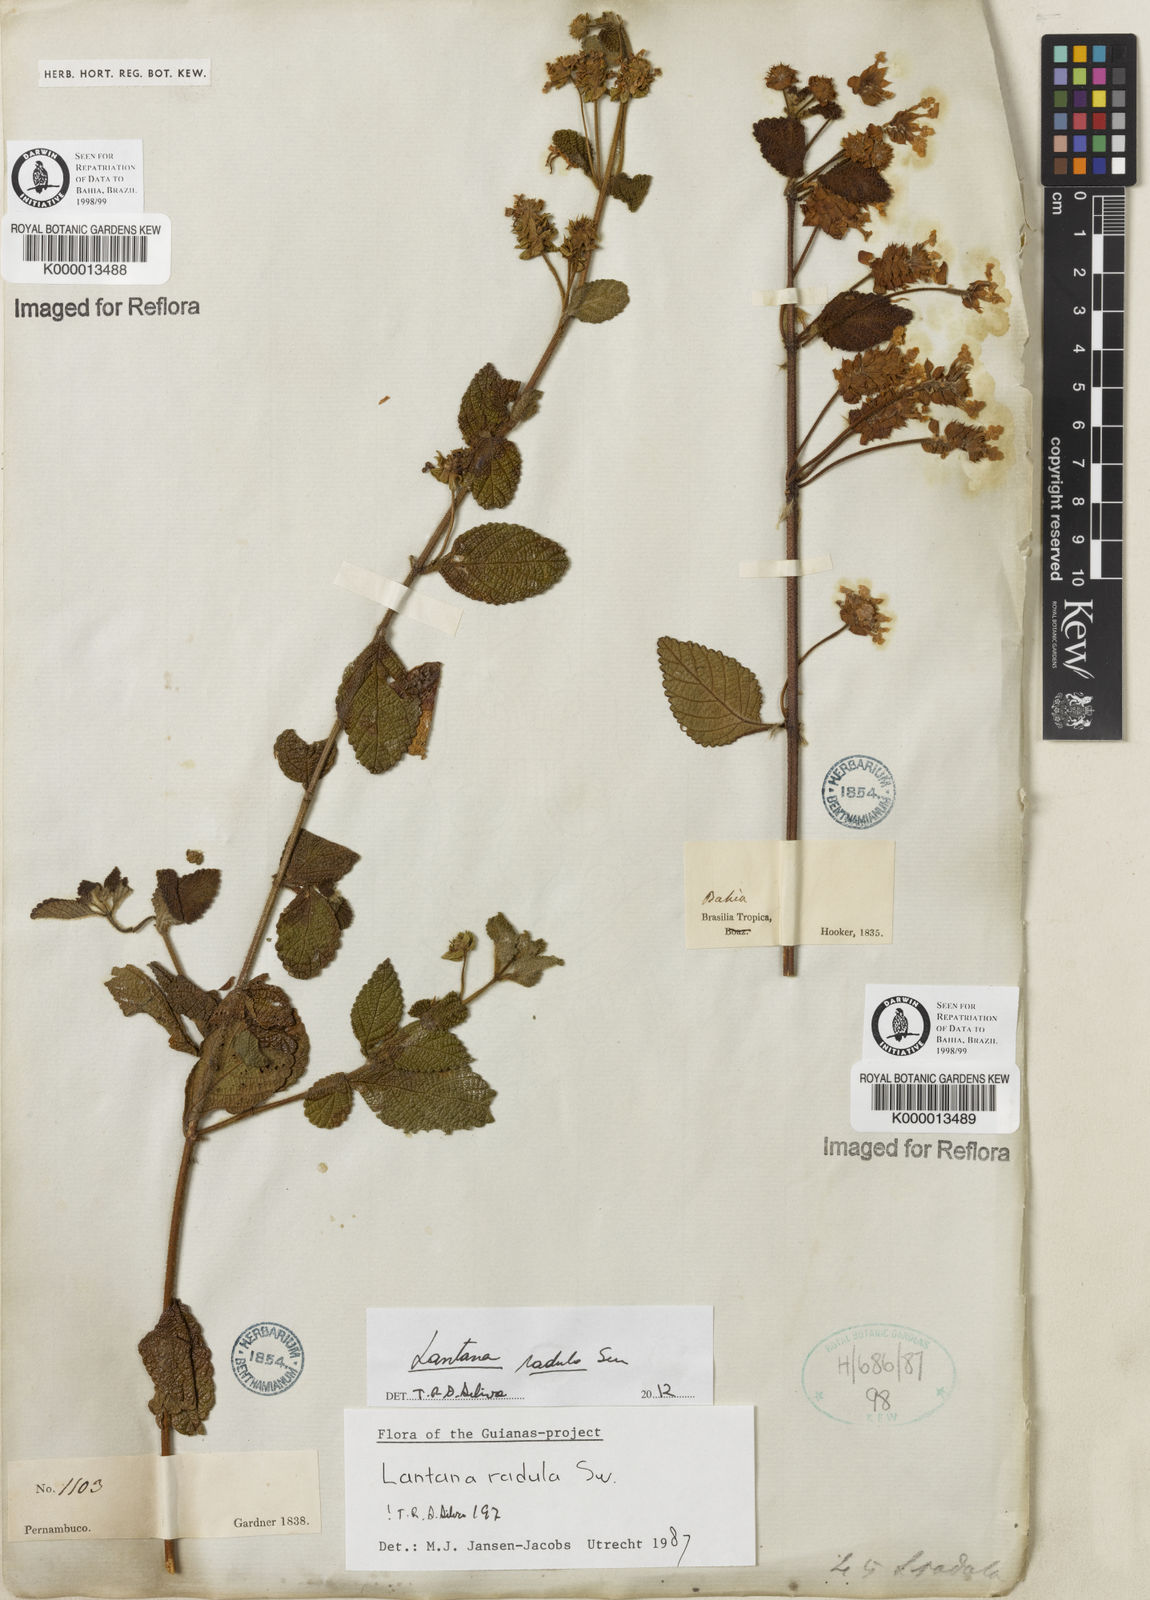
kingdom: Plantae
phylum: Tracheophyta
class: Magnoliopsida
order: Lamiales
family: Verbenaceae
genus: Lantana
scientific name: Lantana radula
